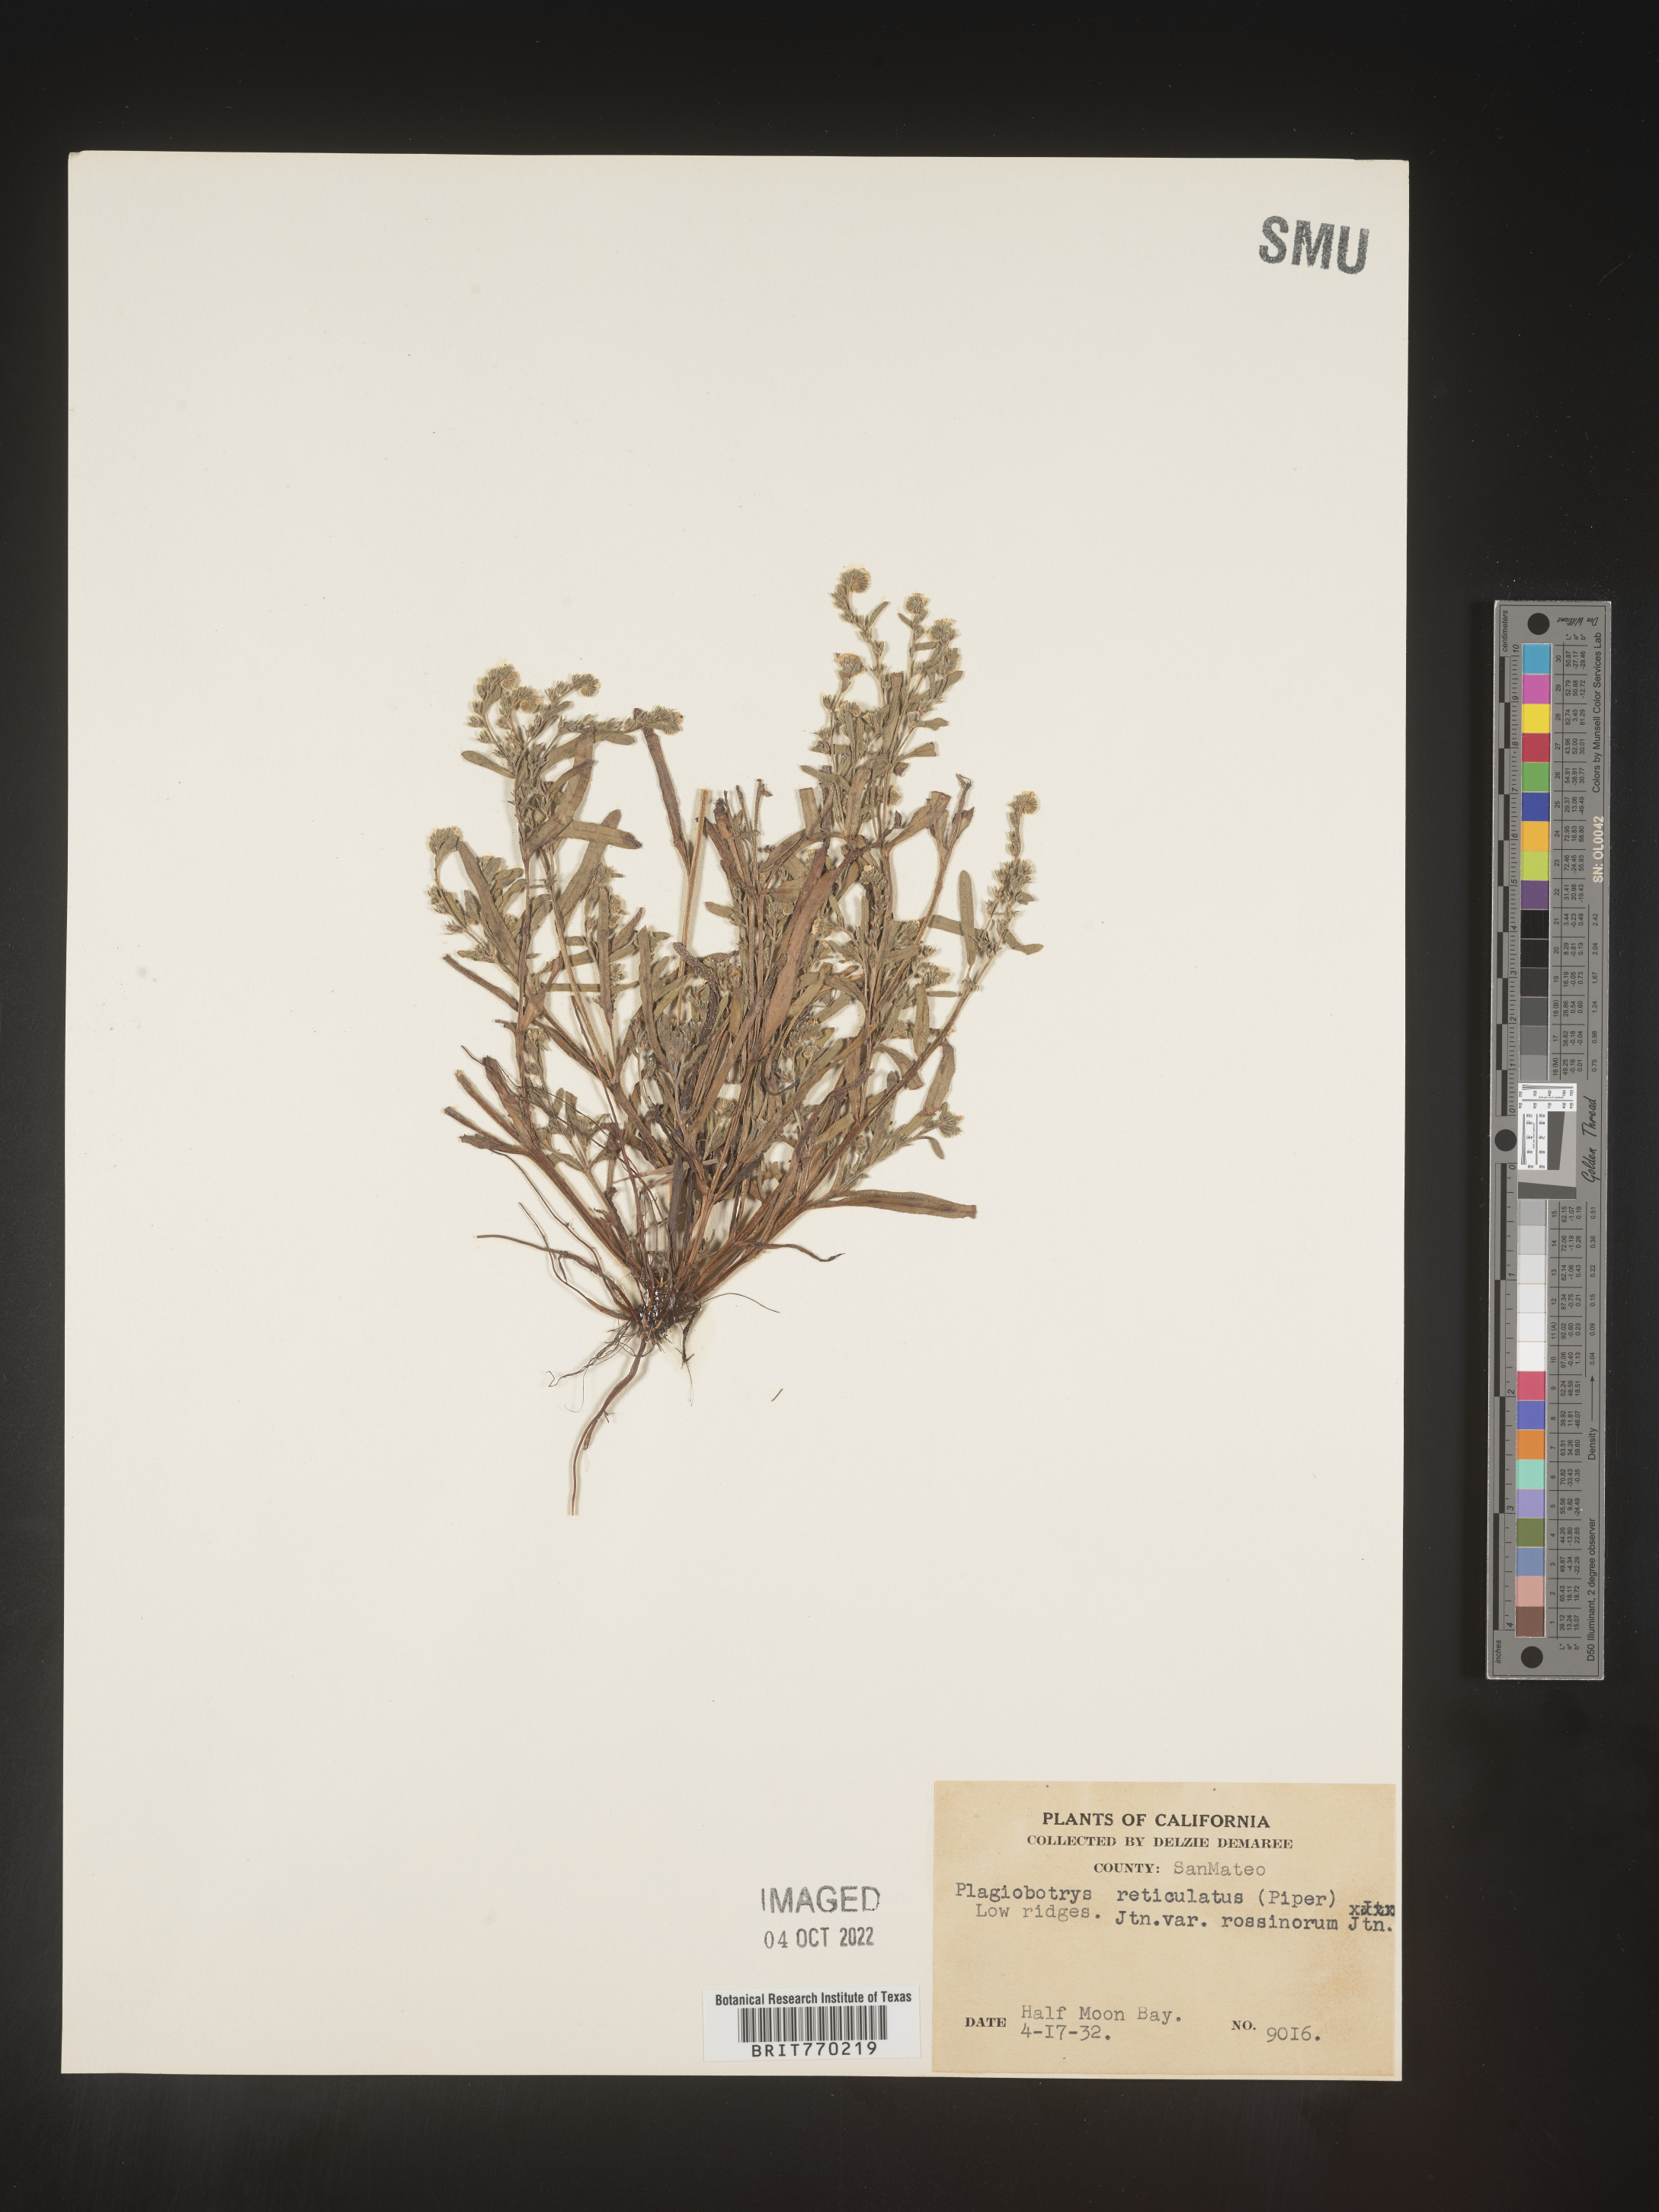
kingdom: Plantae
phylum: Tracheophyta
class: Magnoliopsida
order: Boraginales
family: Boraginaceae
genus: Plagiobothrys
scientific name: Plagiobothrys
